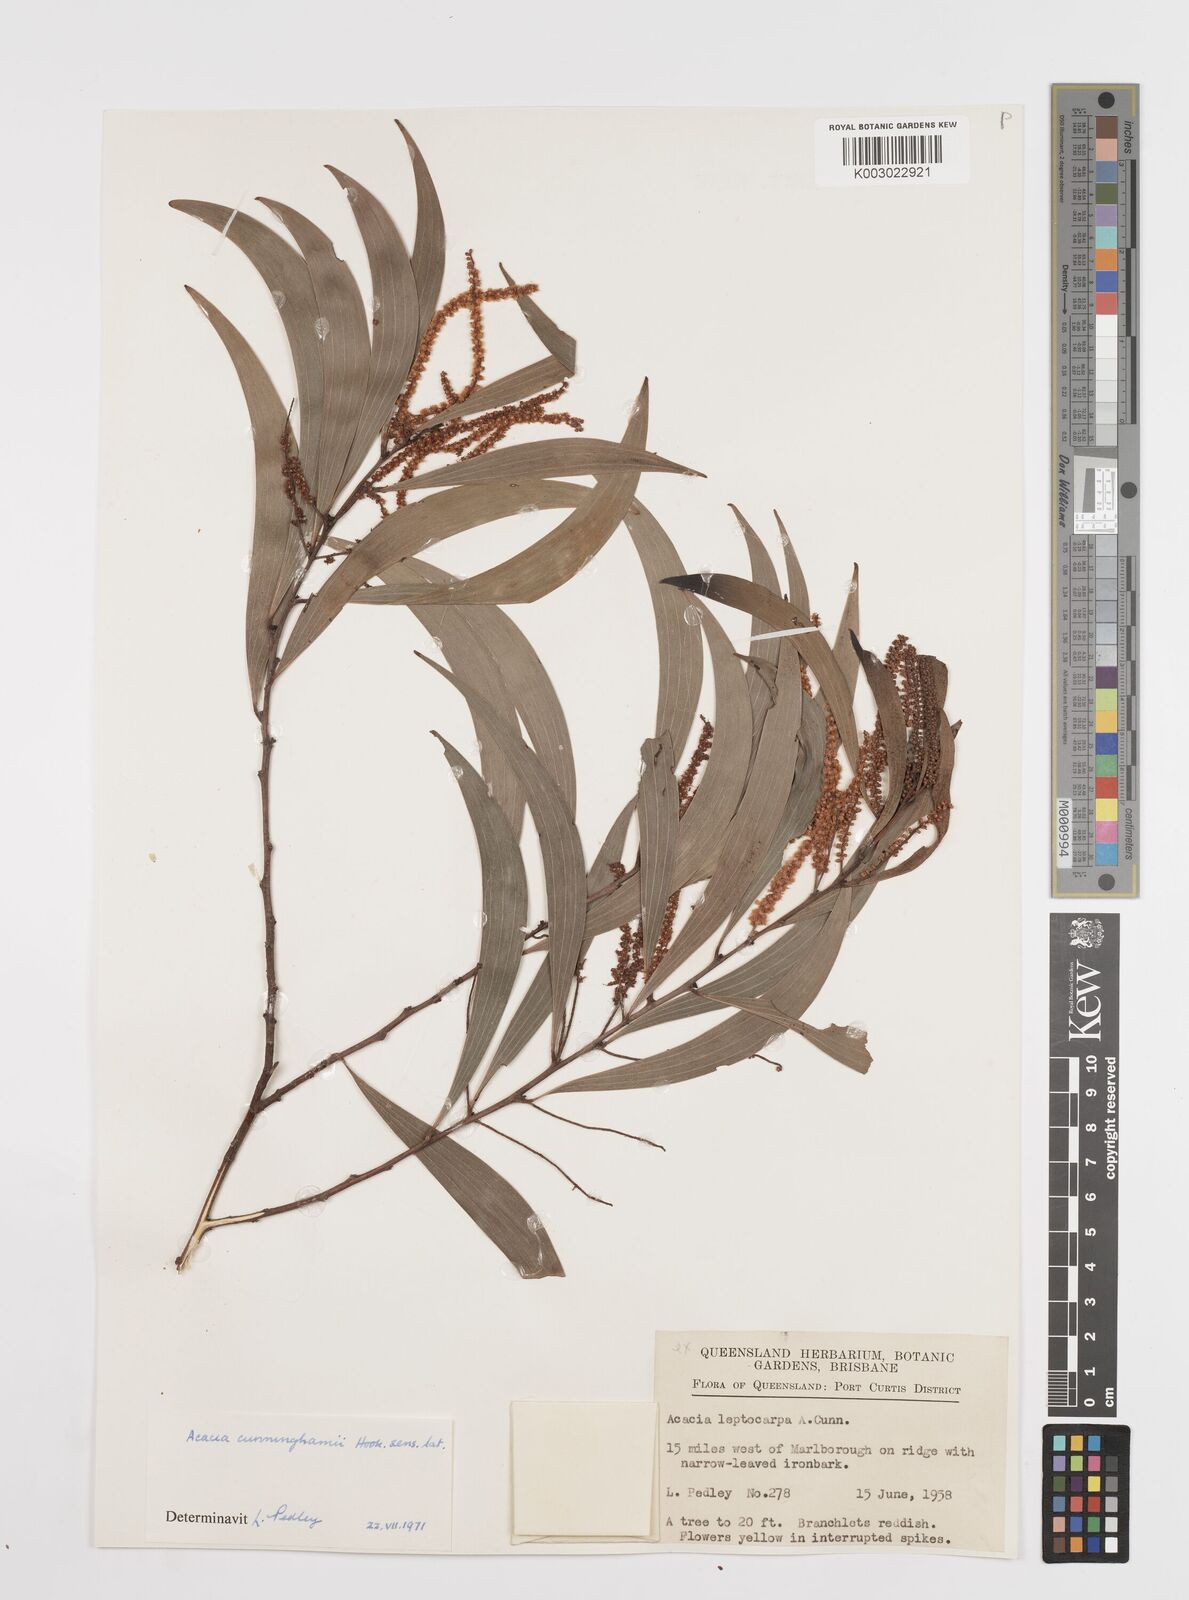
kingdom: Plantae
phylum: Tracheophyta
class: Magnoliopsida
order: Fabales
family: Fabaceae
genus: Acacia
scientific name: Acacia longispicata
